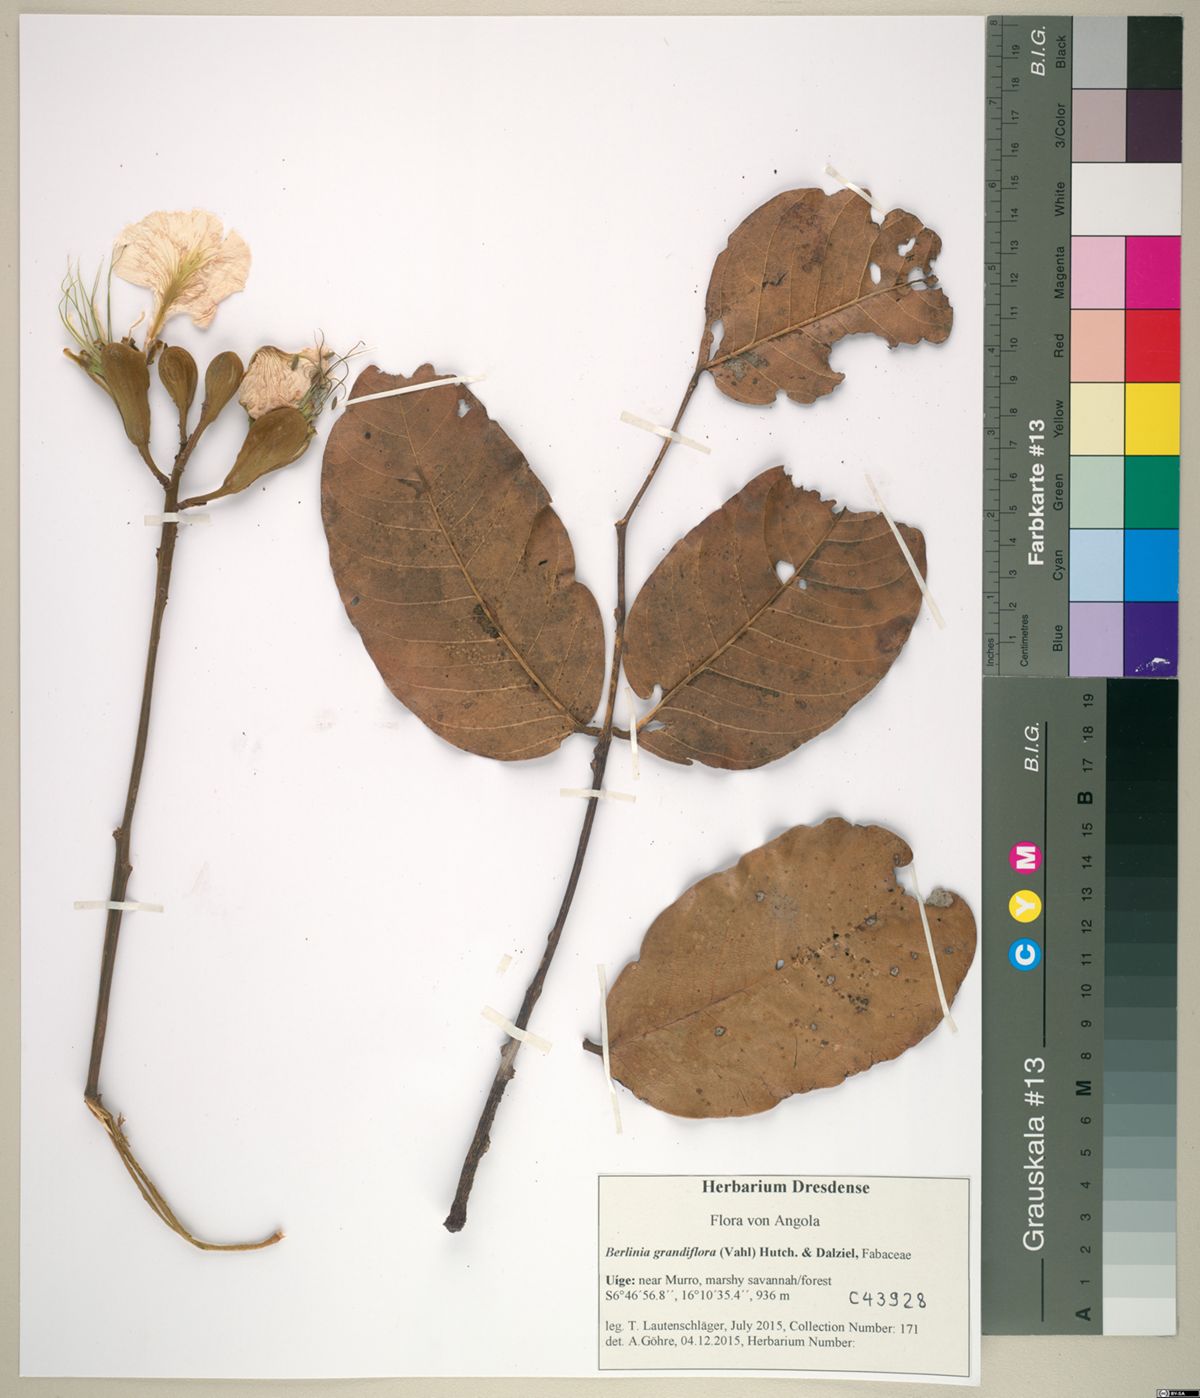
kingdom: Plantae
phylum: Tracheophyta
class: Magnoliopsida
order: Fabales
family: Fabaceae
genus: Berlinia
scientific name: Berlinia grandiflora
